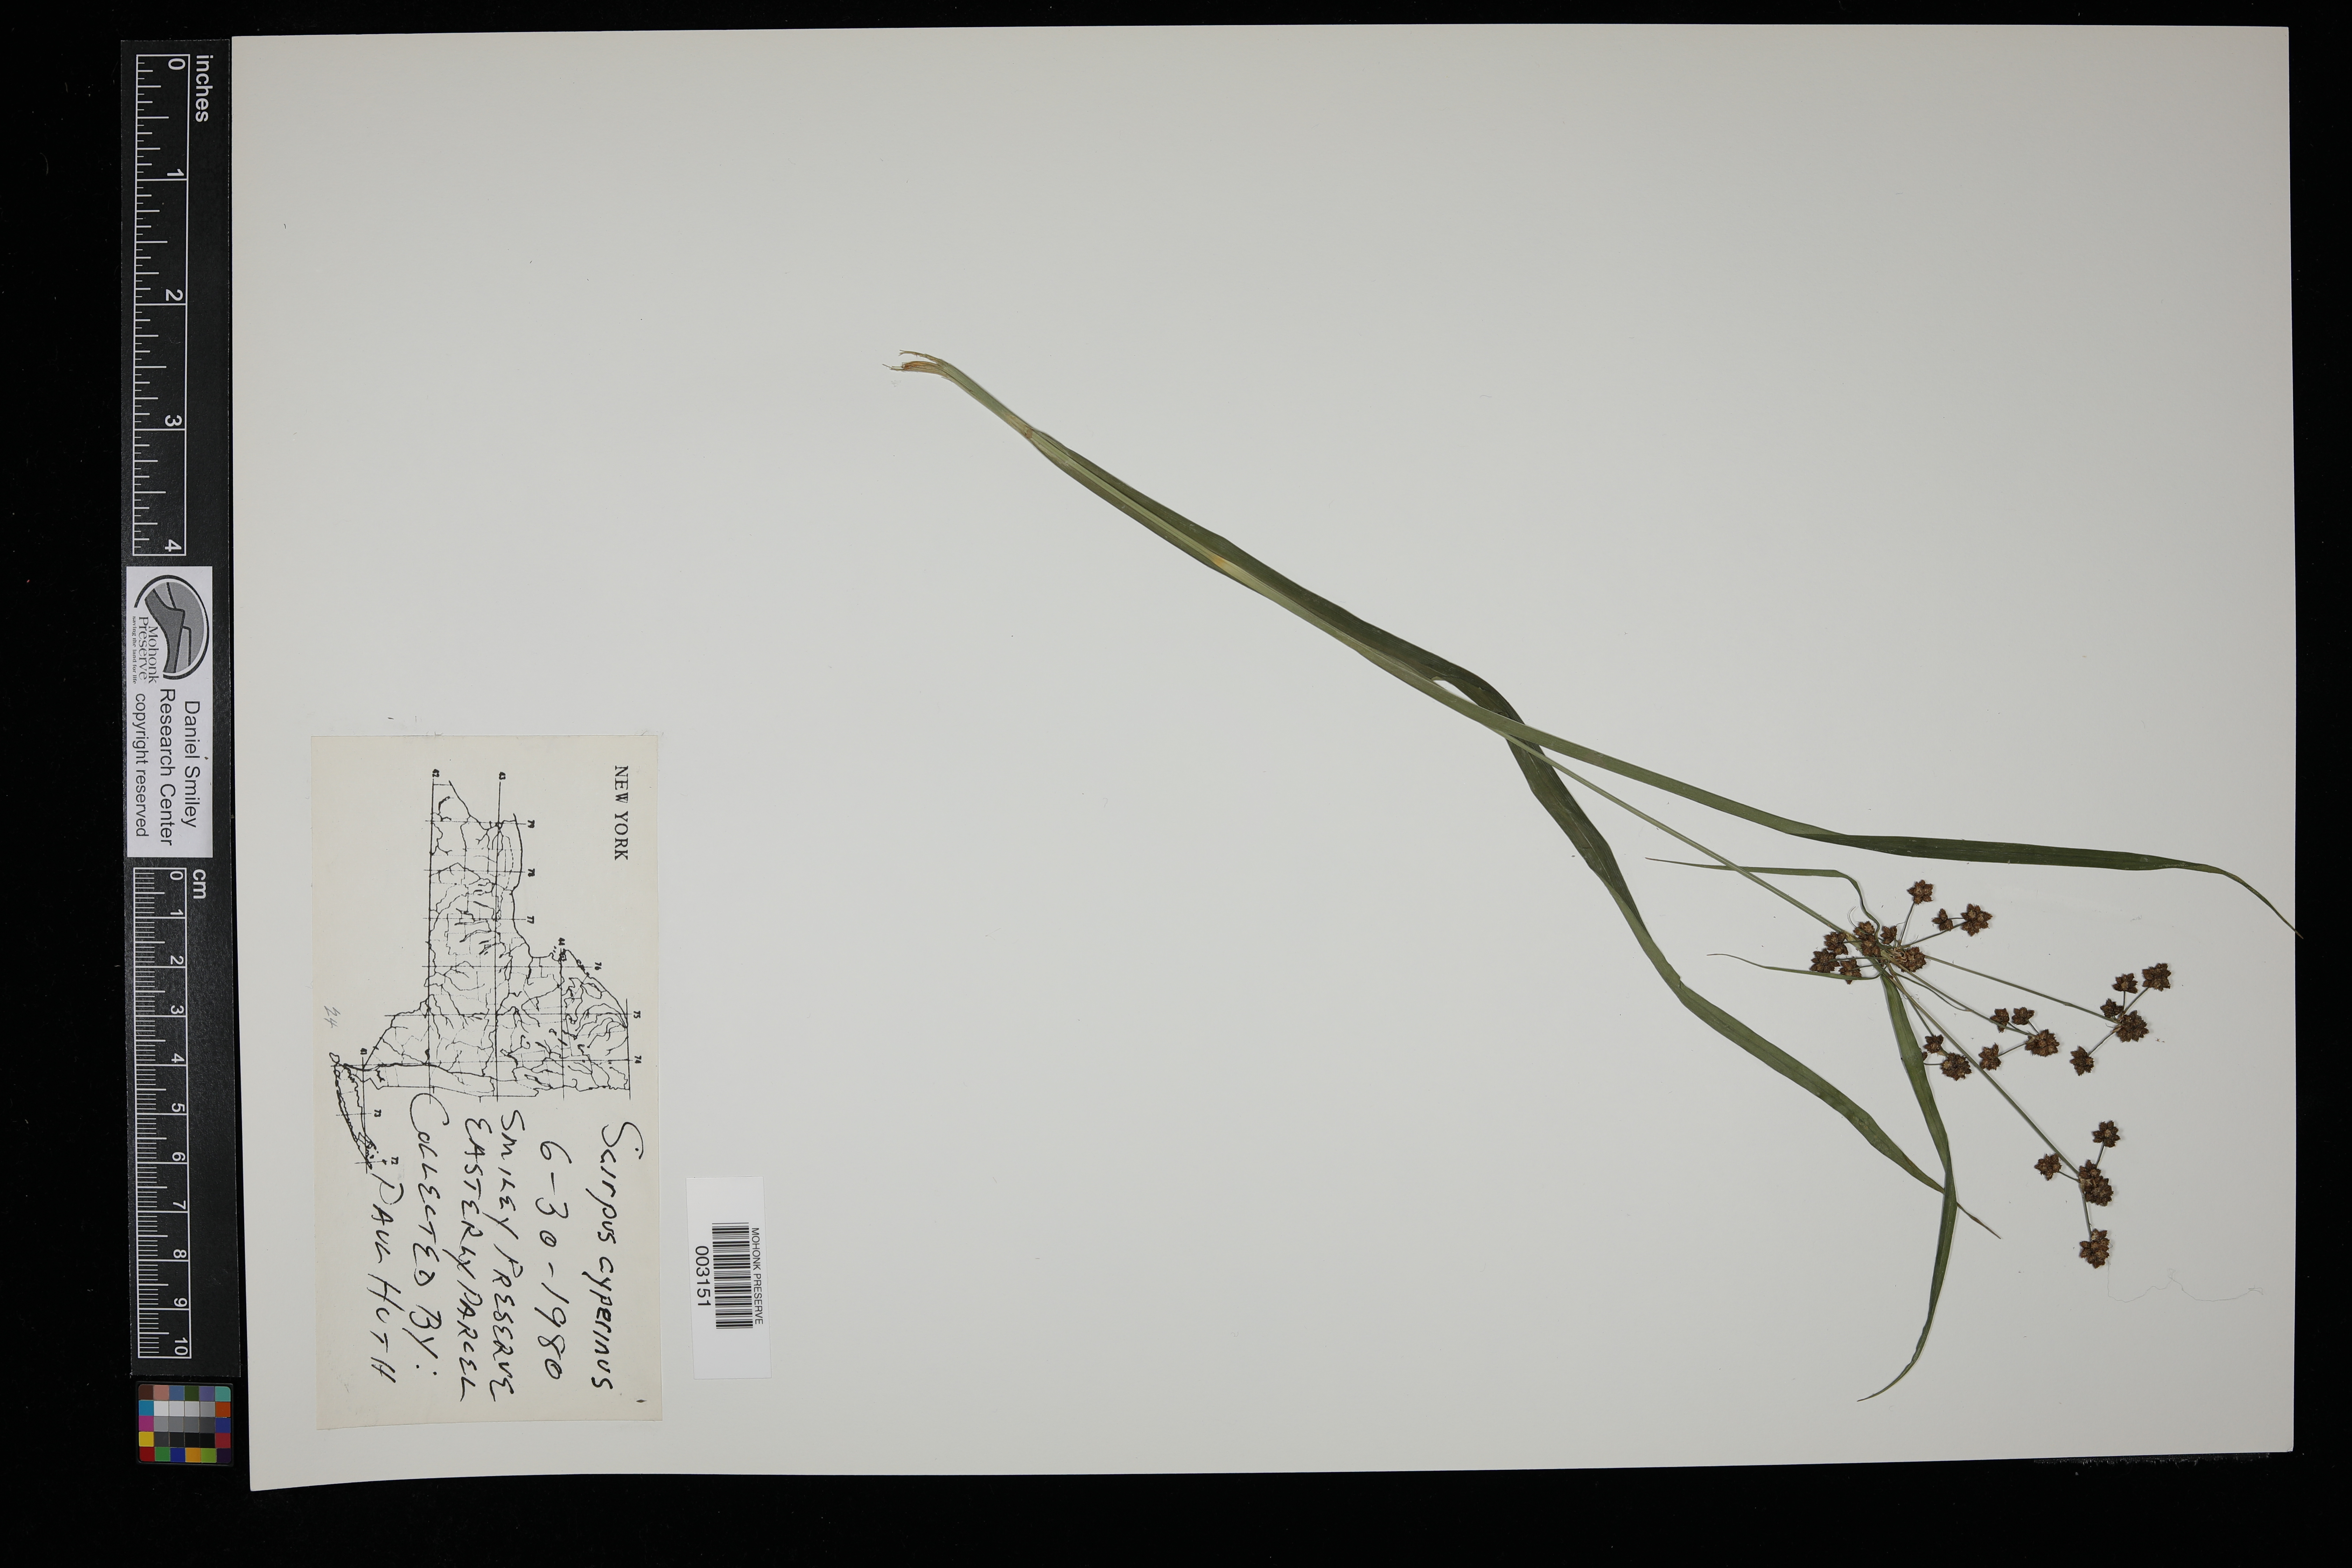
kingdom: Plantae
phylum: Tracheophyta
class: Liliopsida
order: Poales
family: Cyperaceae
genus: Scirpus
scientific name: Scirpus cyperinus
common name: Black-sheathed bulrush
